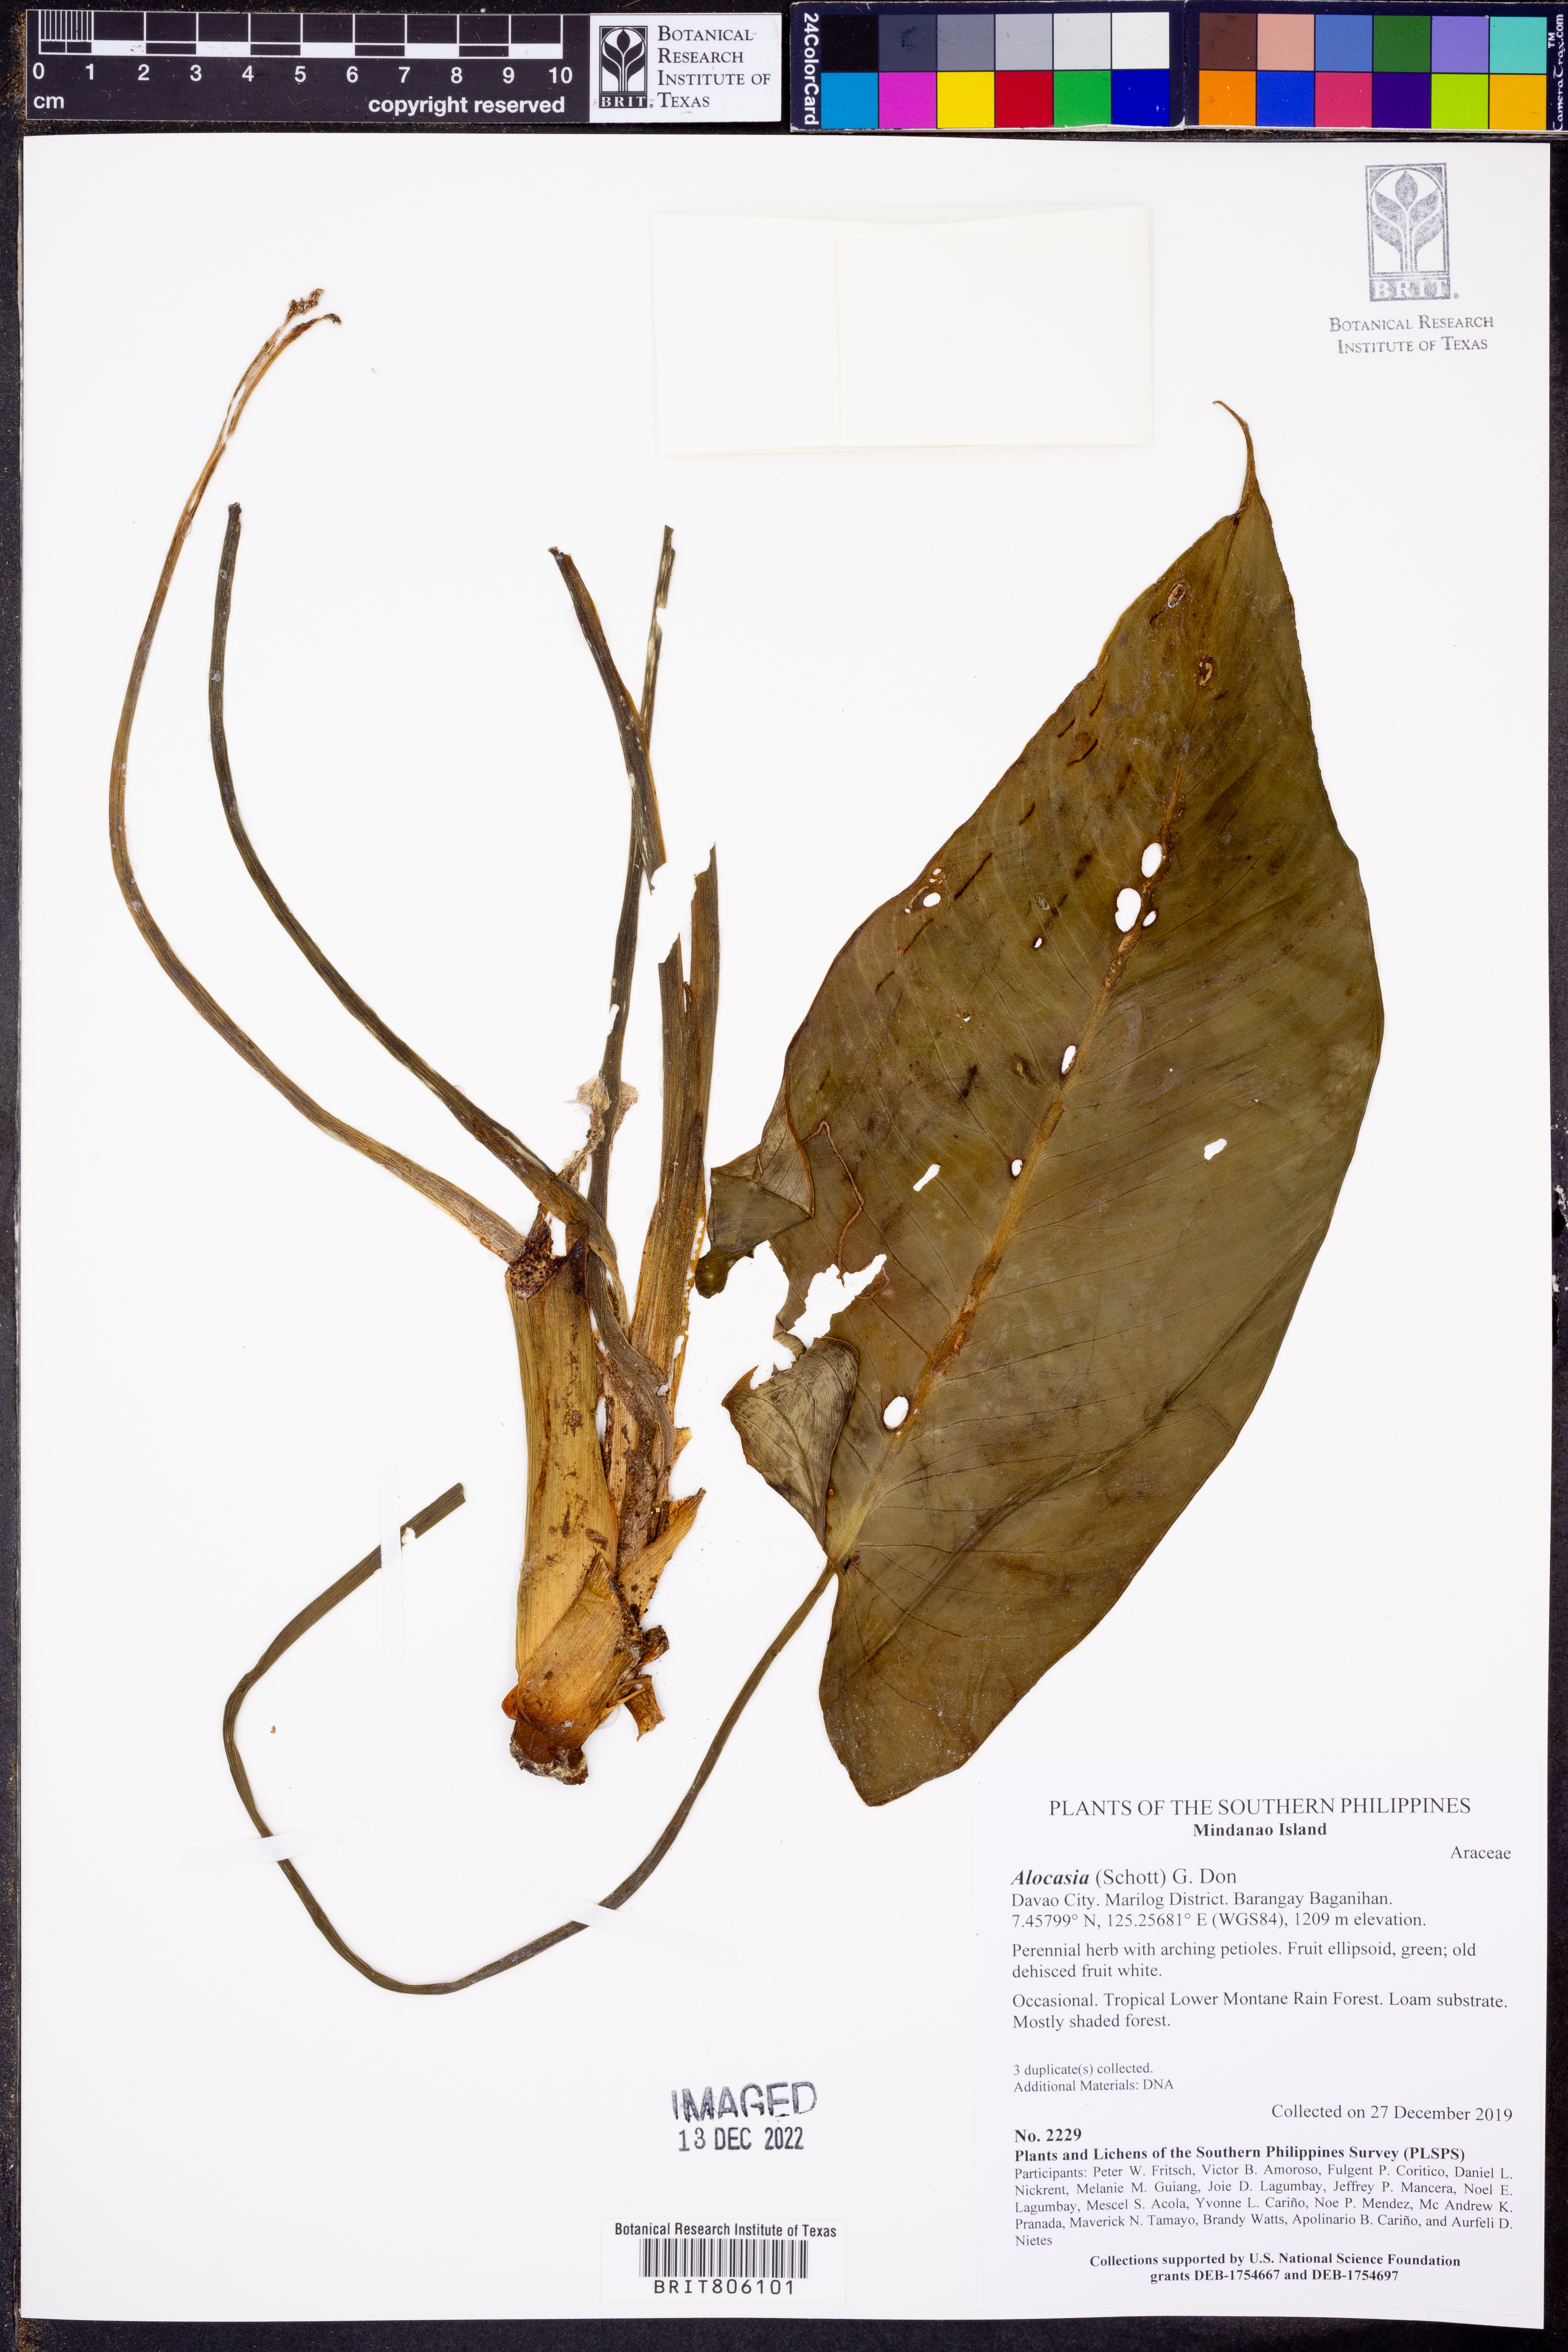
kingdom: Plantae
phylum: Tracheophyta
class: Liliopsida
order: Alismatales
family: Araceae
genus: Alocasia
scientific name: Alocasia
